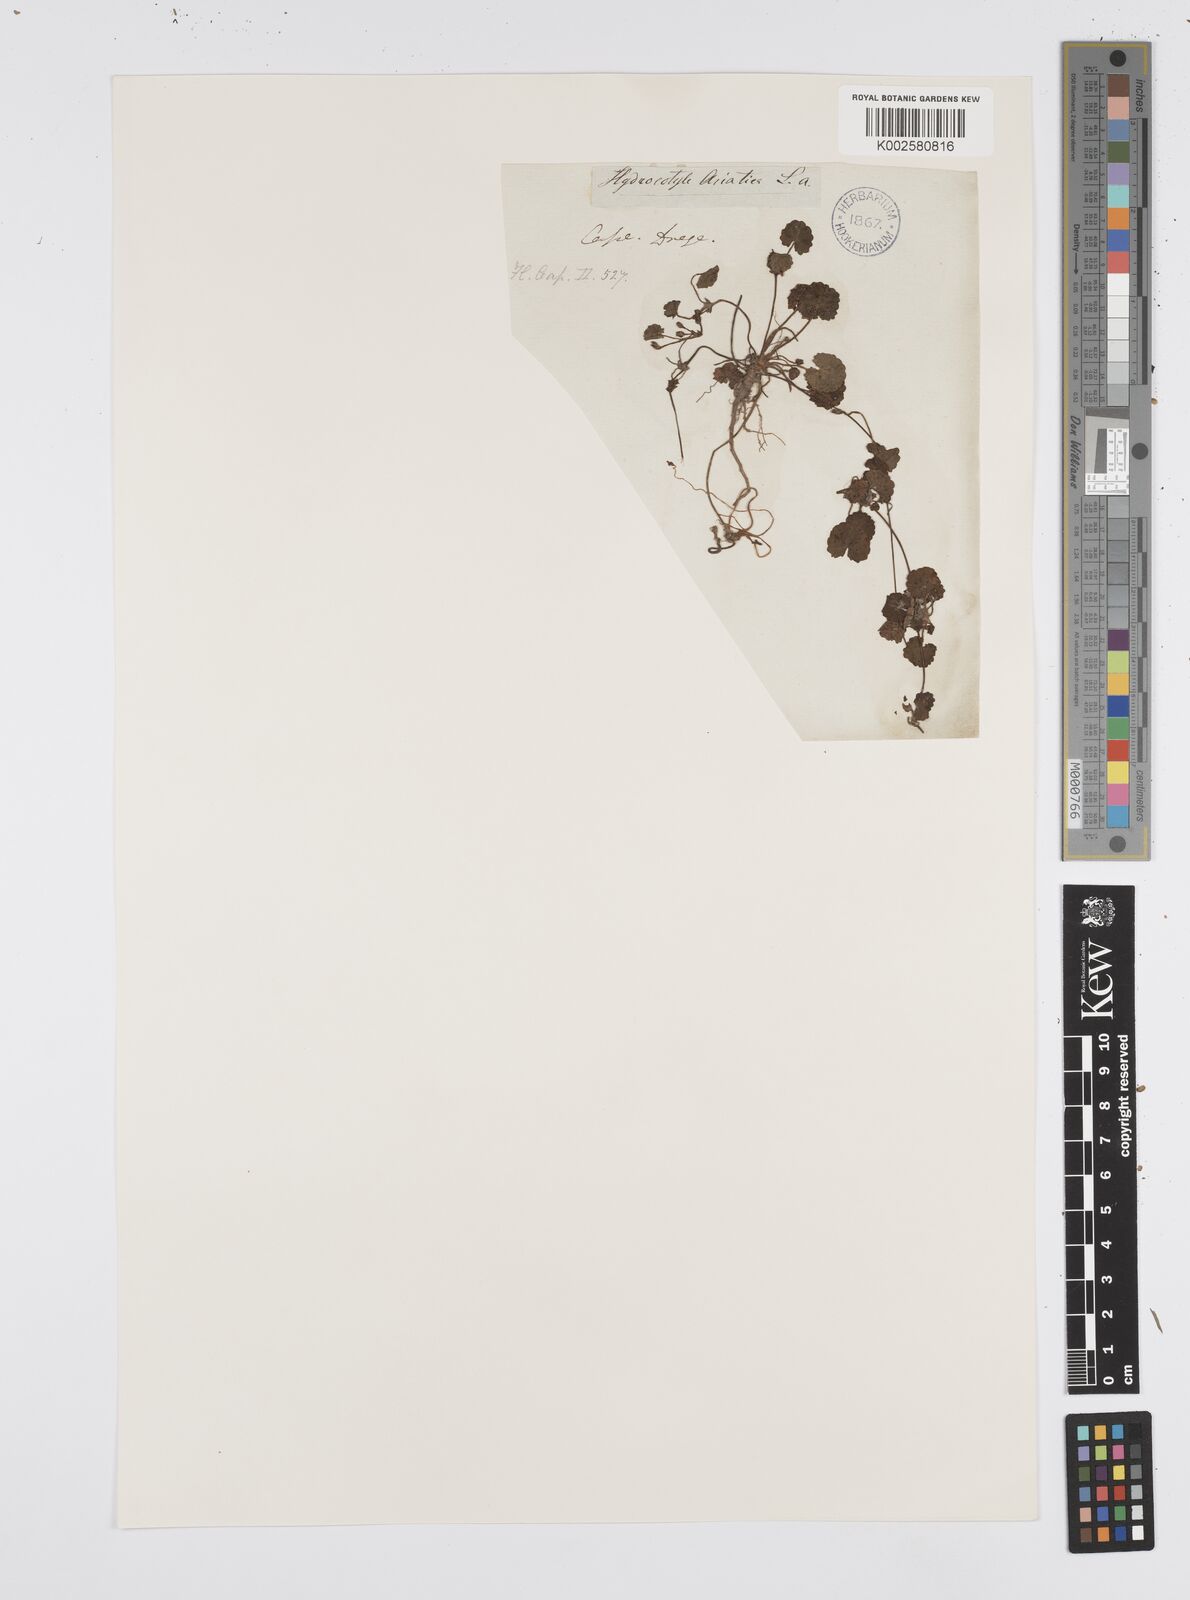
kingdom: Plantae
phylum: Tracheophyta
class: Magnoliopsida
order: Apiales
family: Apiaceae
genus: Centella
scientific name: Centella coriacea
